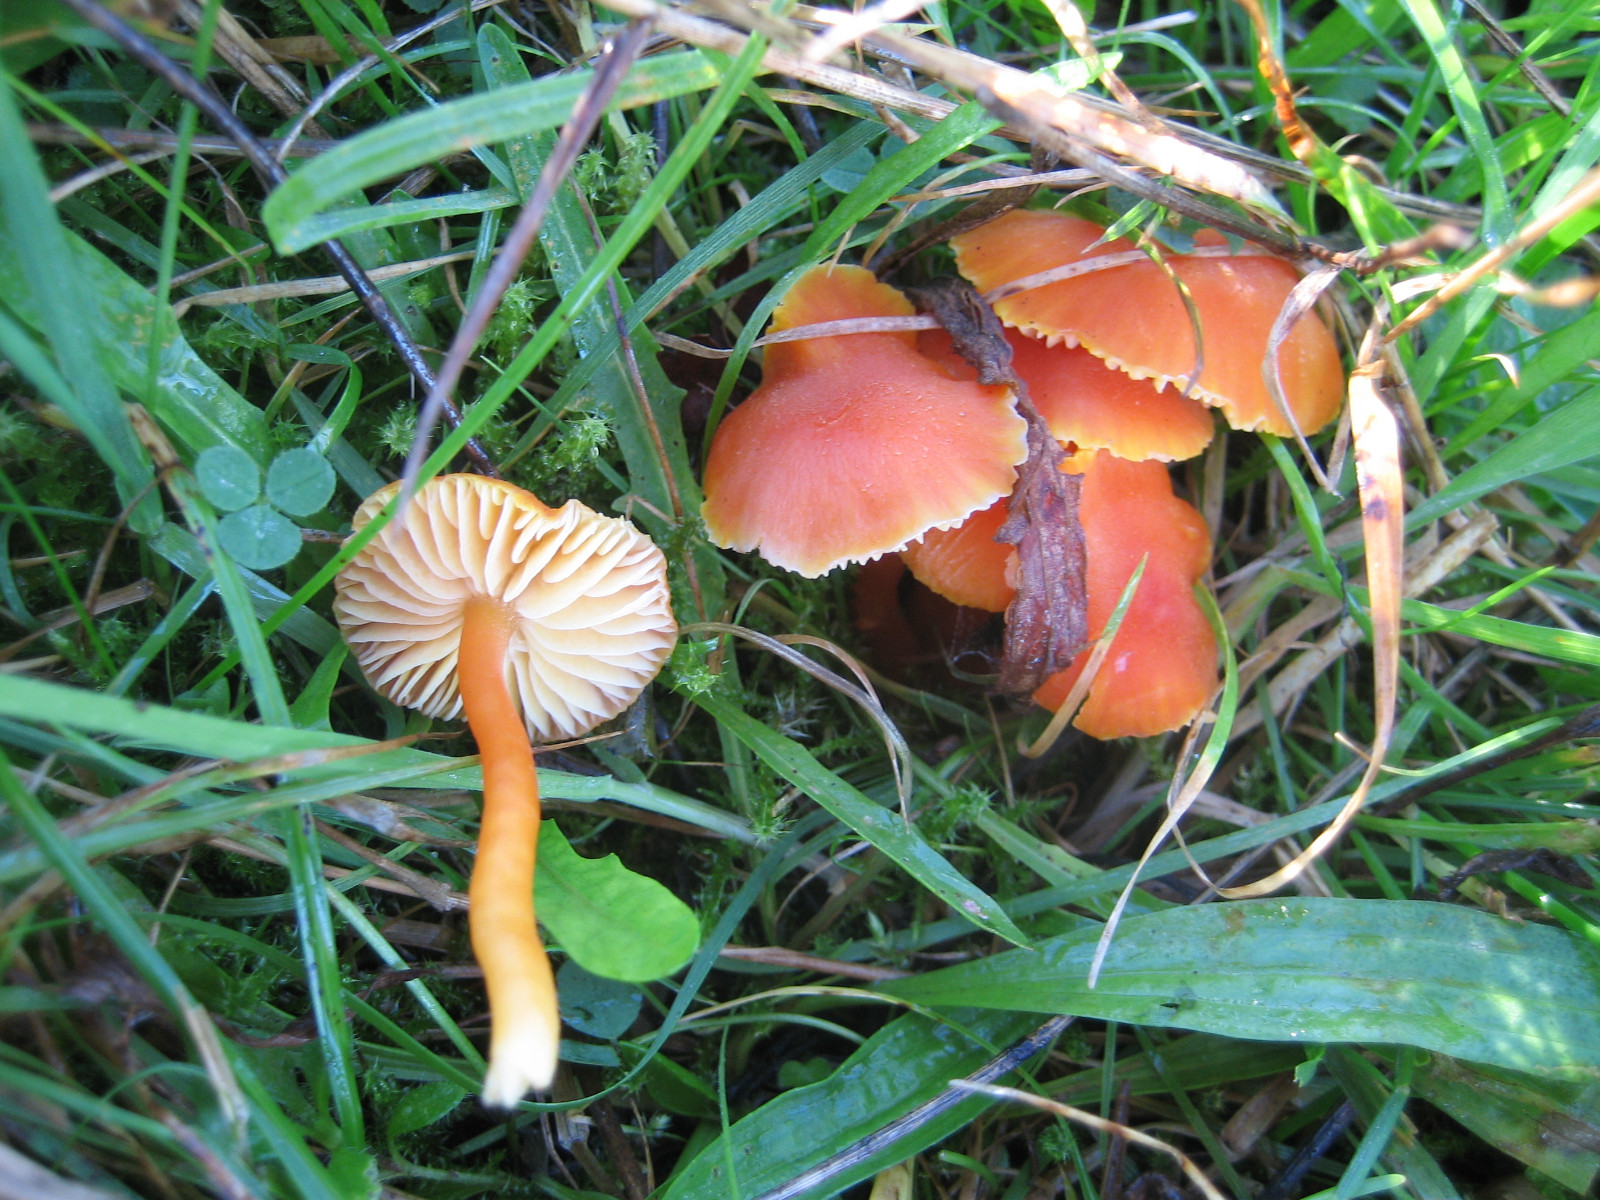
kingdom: Fungi
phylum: Basidiomycota
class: Agaricomycetes
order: Agaricales
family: Hygrophoraceae
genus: Hygrocybe
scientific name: Hygrocybe miniata
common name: mønje-vokshat
